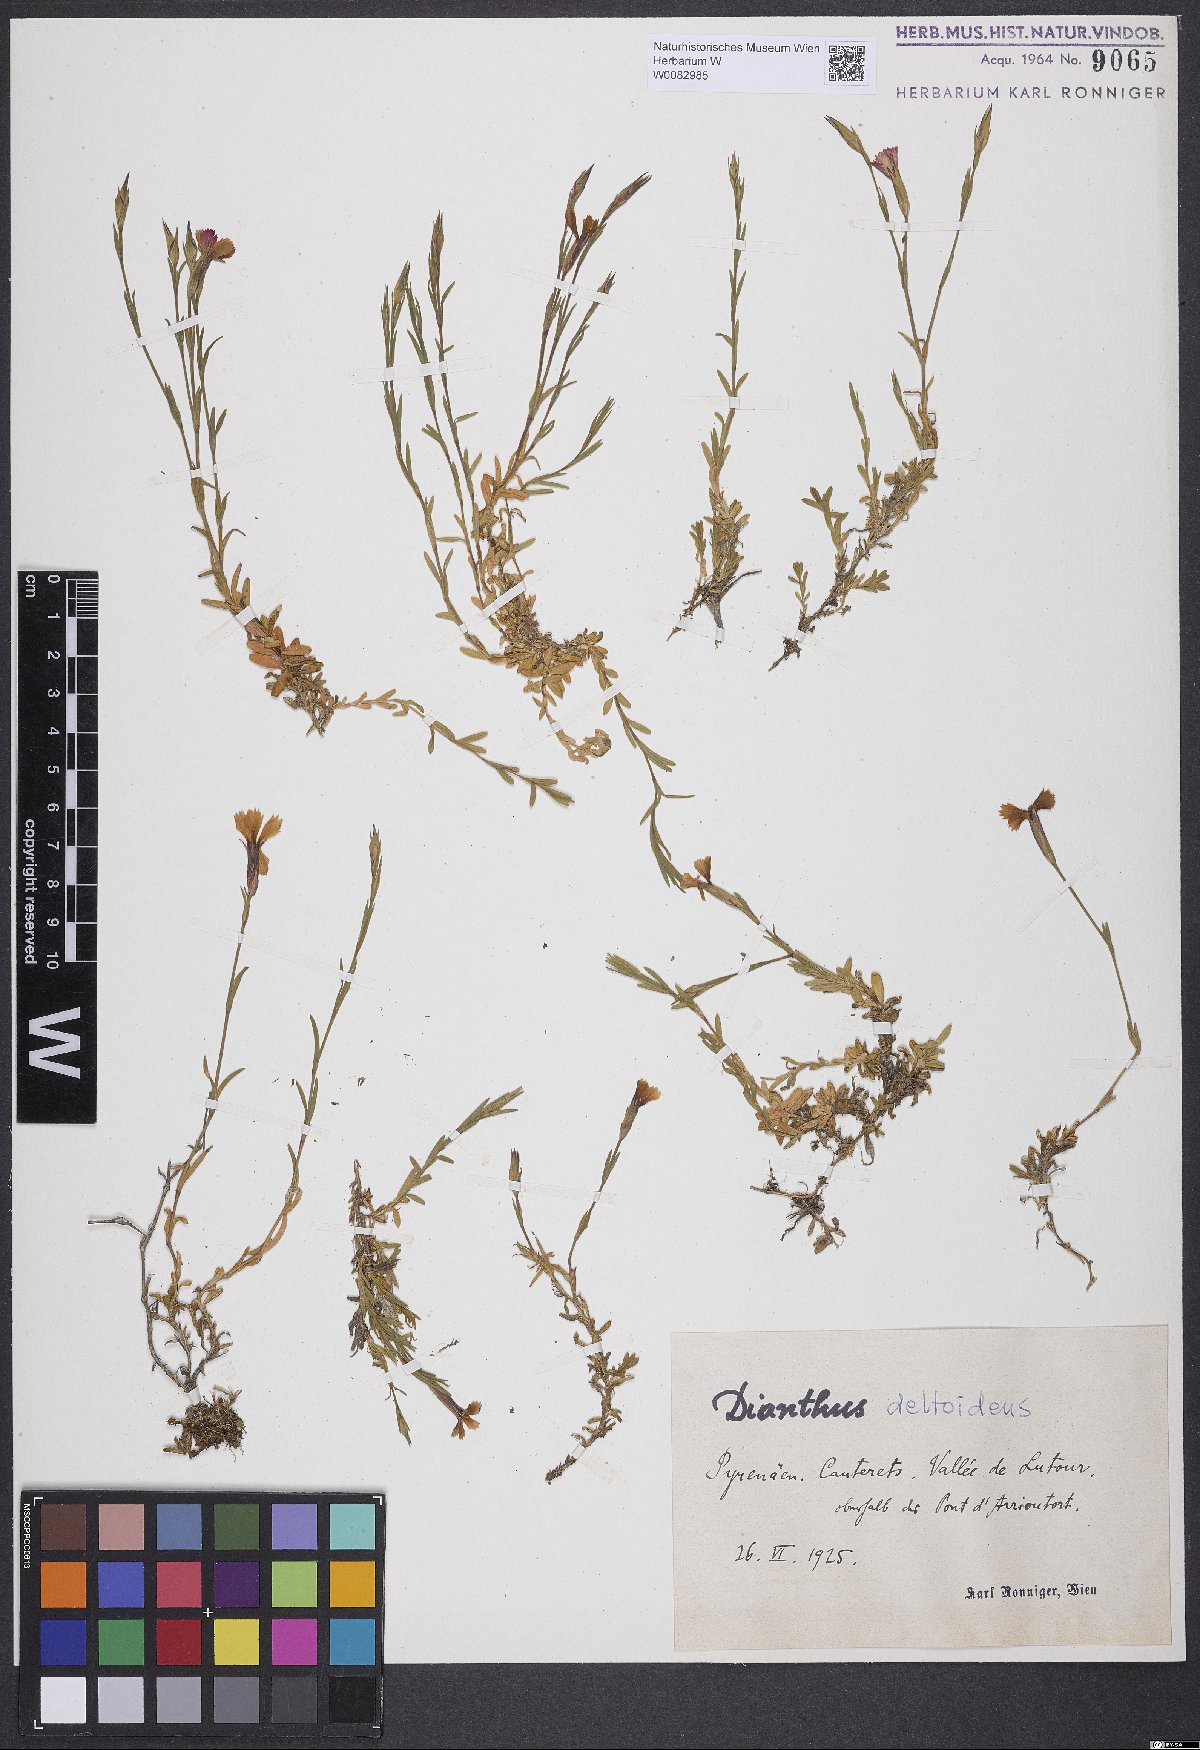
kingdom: Plantae
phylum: Tracheophyta
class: Magnoliopsida
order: Caryophyllales
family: Caryophyllaceae
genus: Dianthus
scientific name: Dianthus deltoides
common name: Maiden pink
